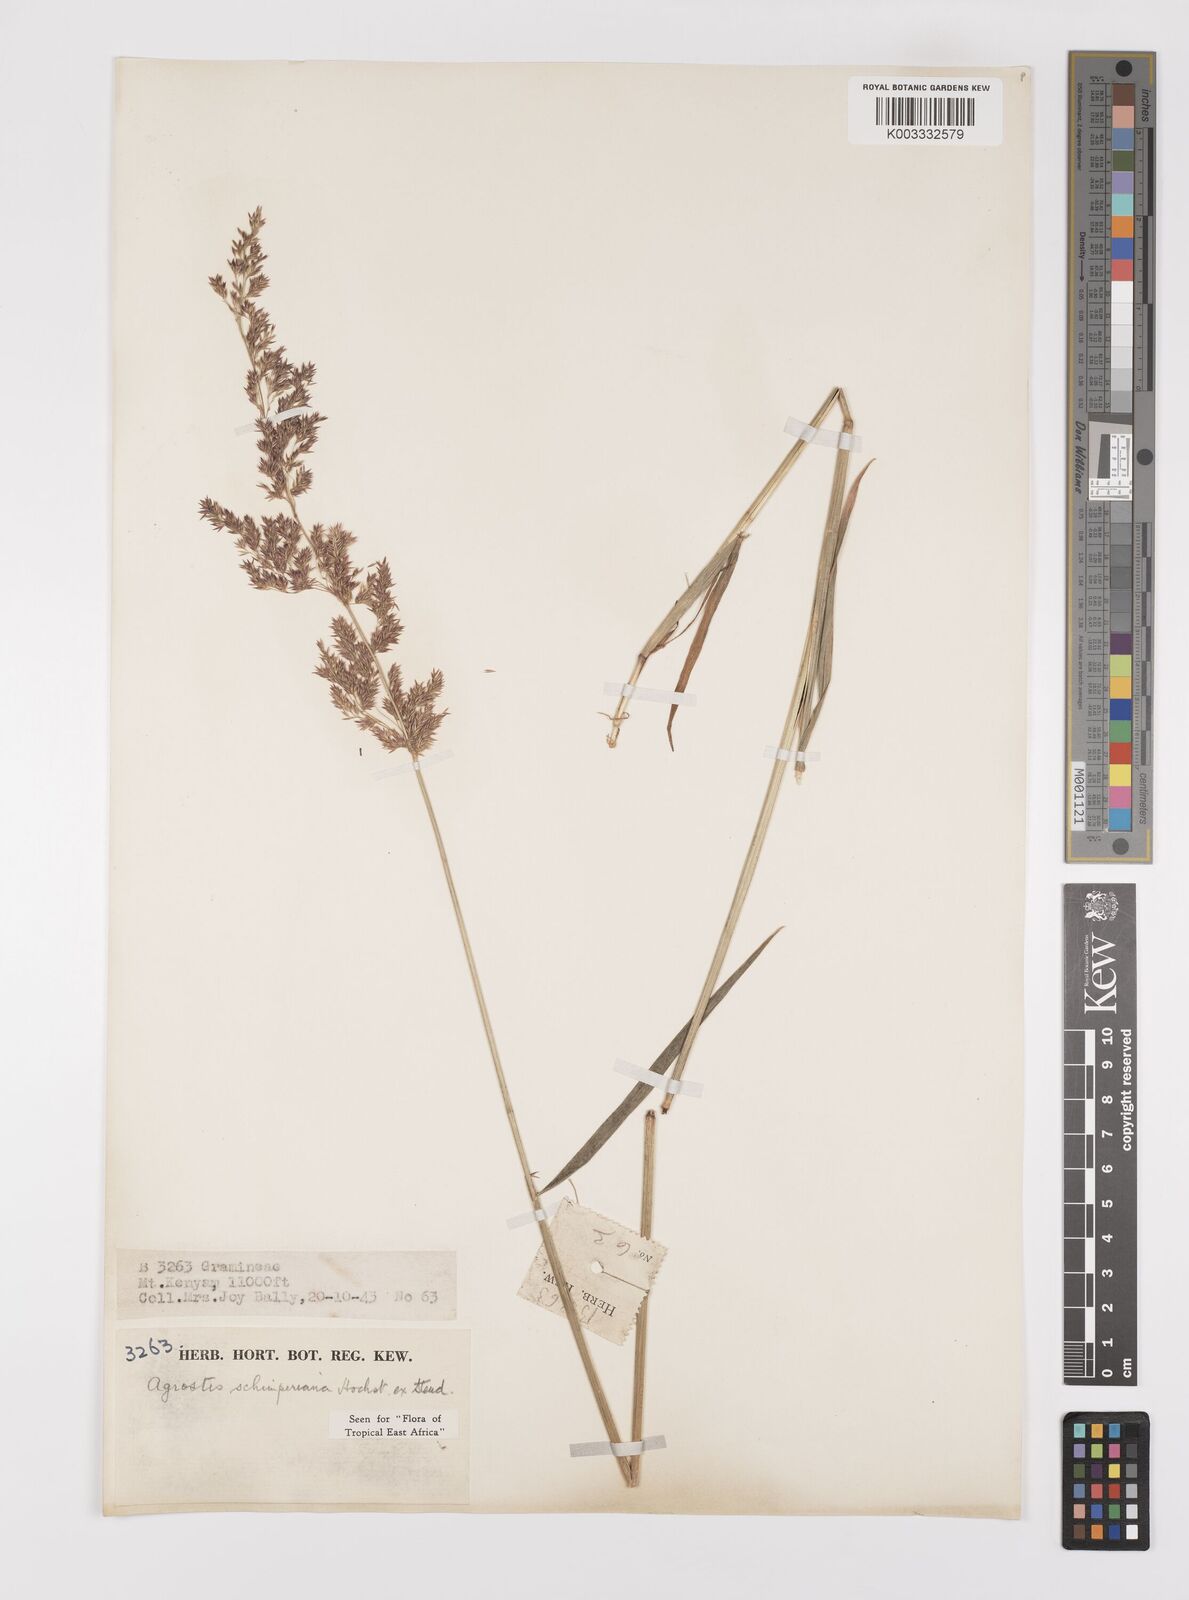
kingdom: Plantae
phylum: Tracheophyta
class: Liliopsida
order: Poales
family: Poaceae
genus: Polypogon
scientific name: Polypogon schimperianus
